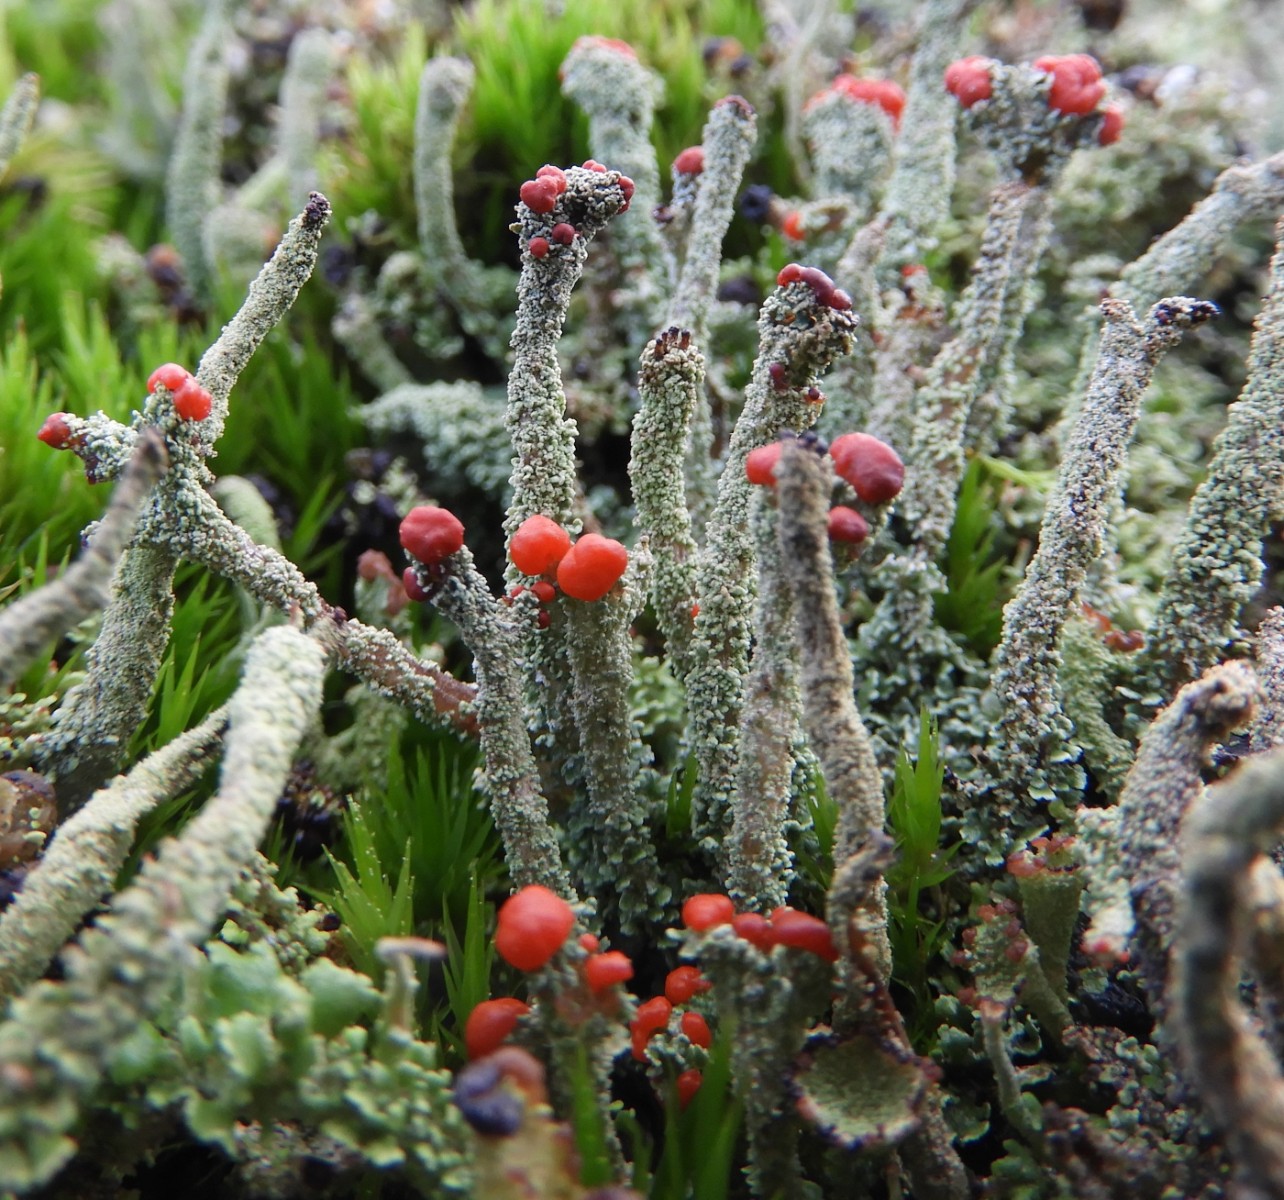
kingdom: Fungi
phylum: Ascomycota
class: Lecanoromycetes
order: Lecanorales
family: Cladoniaceae
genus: Cladonia
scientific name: Cladonia floerkeana
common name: lakrød bægerlav
